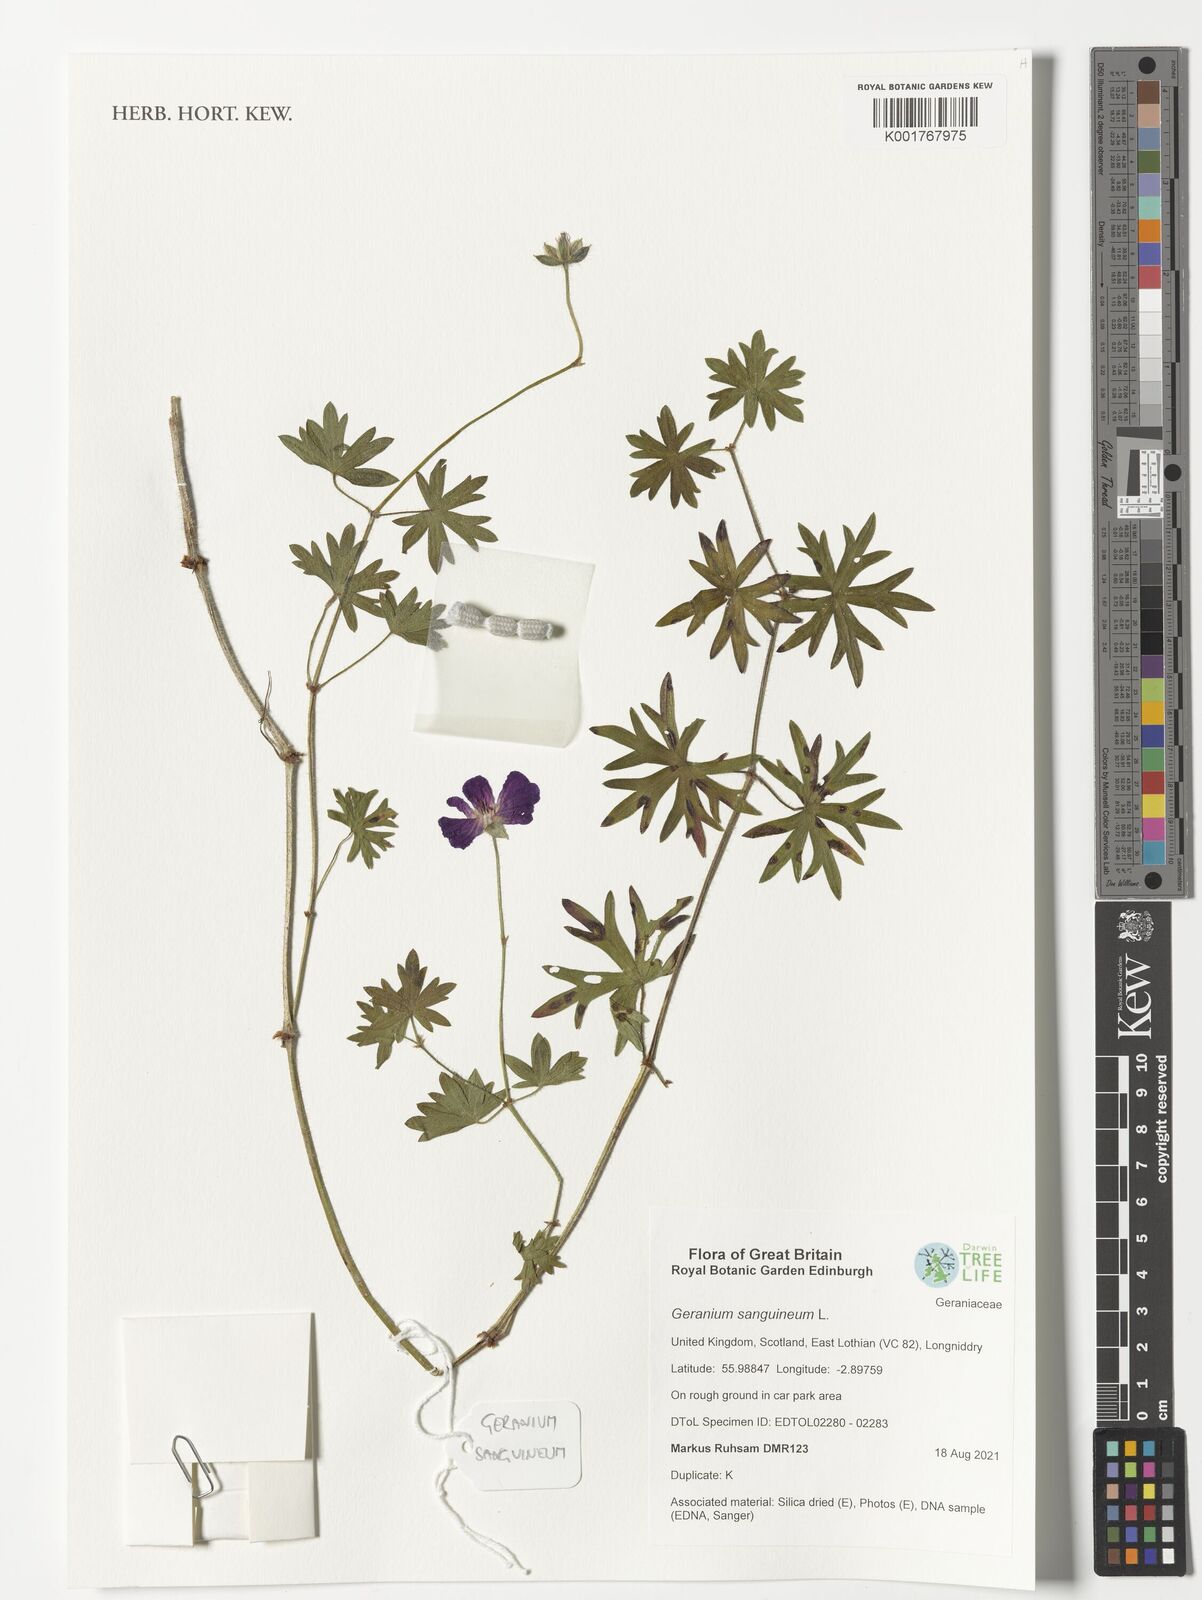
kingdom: Plantae
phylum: Tracheophyta
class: Magnoliopsida
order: Geraniales
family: Geraniaceae
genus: Geranium
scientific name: Geranium sanguineum
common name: Bloody crane's-bill
